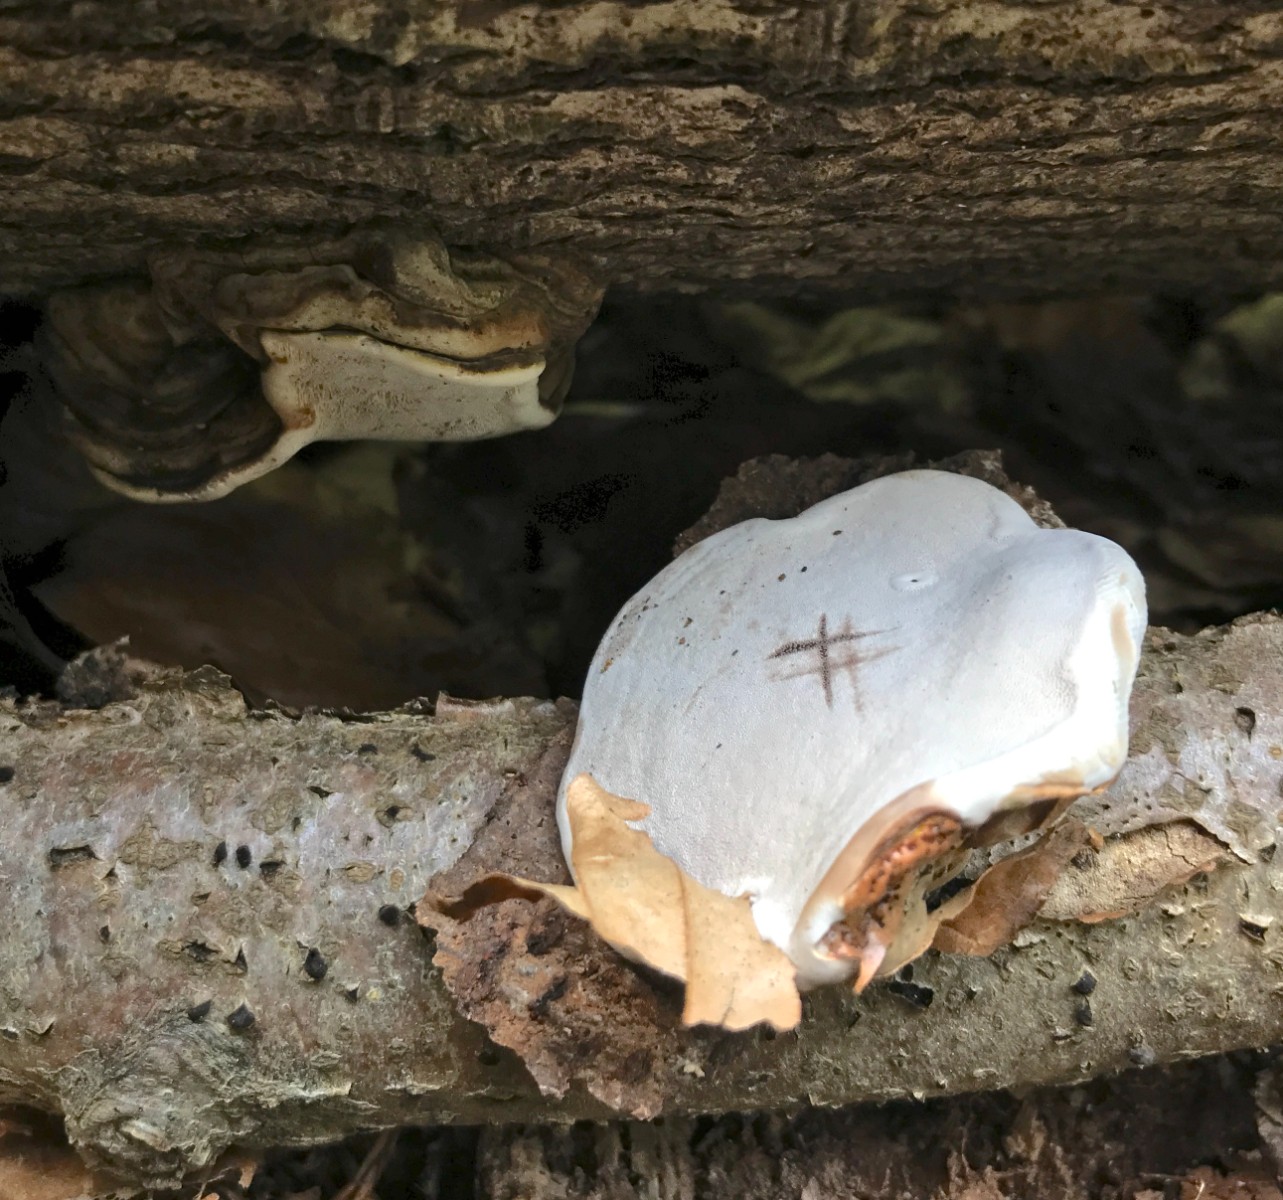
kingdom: Fungi
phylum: Basidiomycota
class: Agaricomycetes
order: Polyporales
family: Polyporaceae
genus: Ganoderma
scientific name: Ganoderma applanatum
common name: flad lakporesvamp
